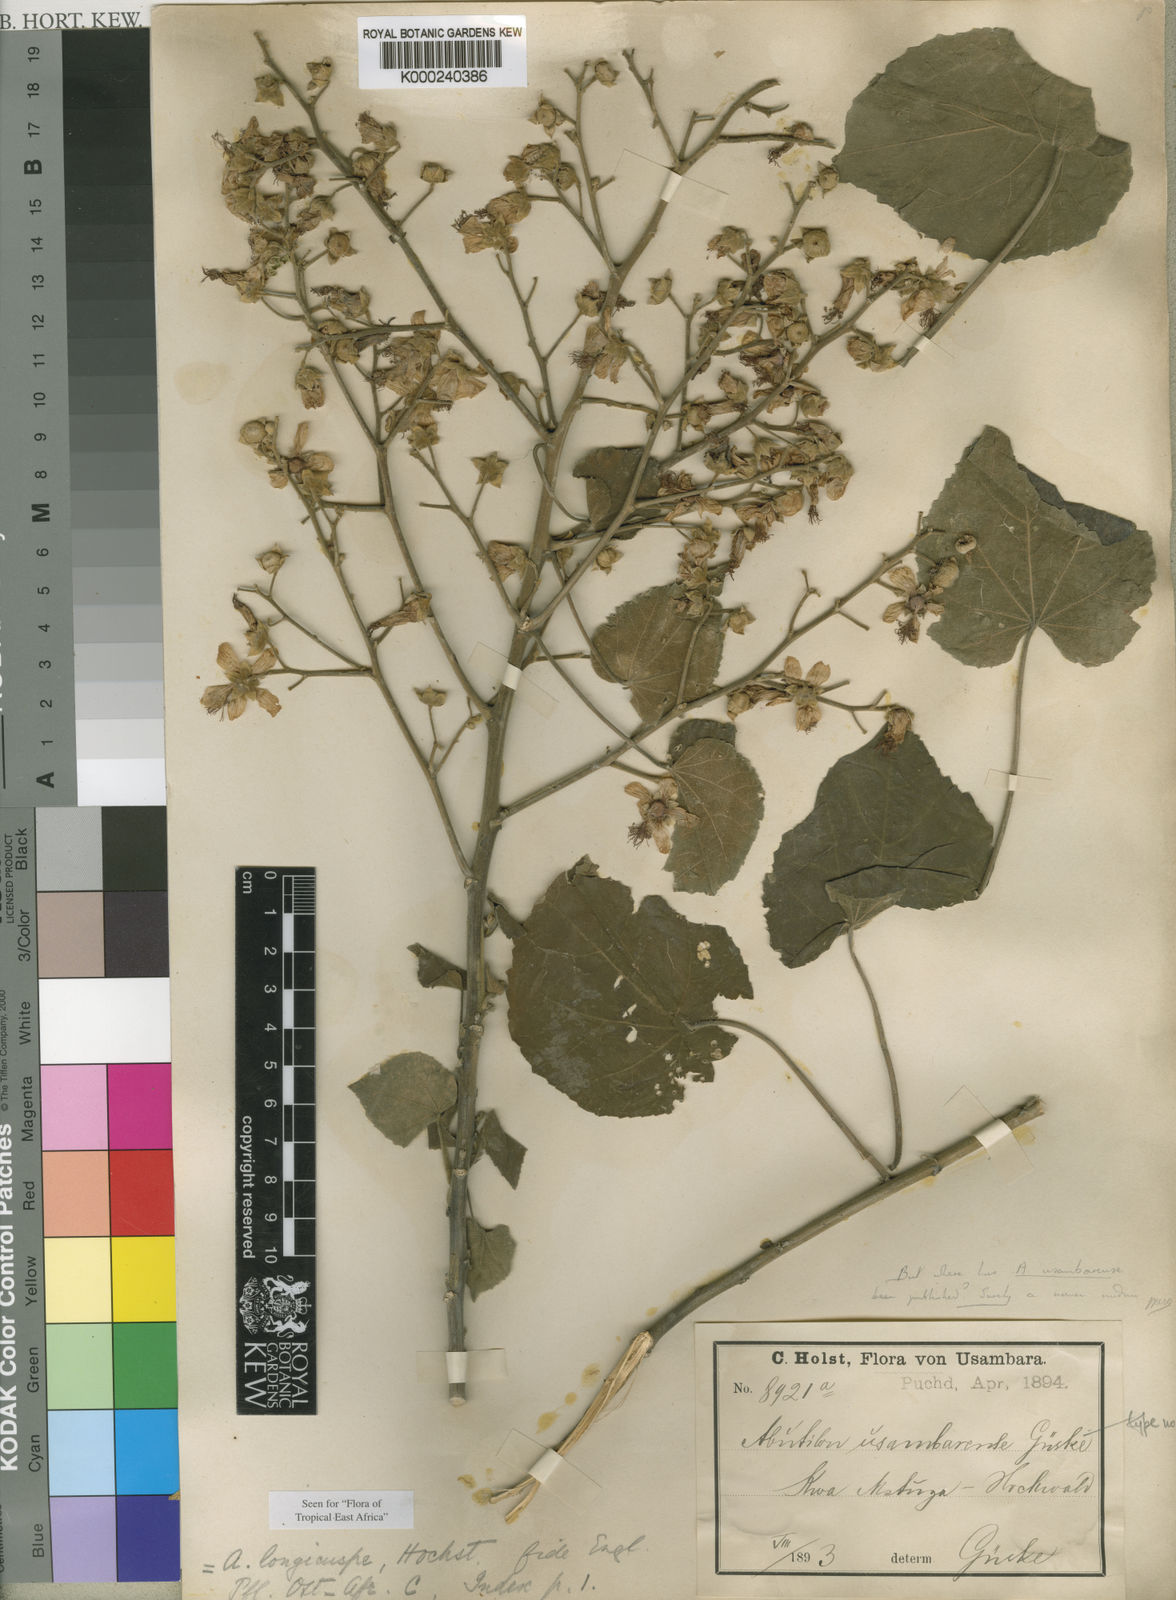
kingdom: Plantae
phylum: Tracheophyta
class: Magnoliopsida
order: Malvales
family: Malvaceae
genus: Abutilon
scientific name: Abutilon longicuspe
